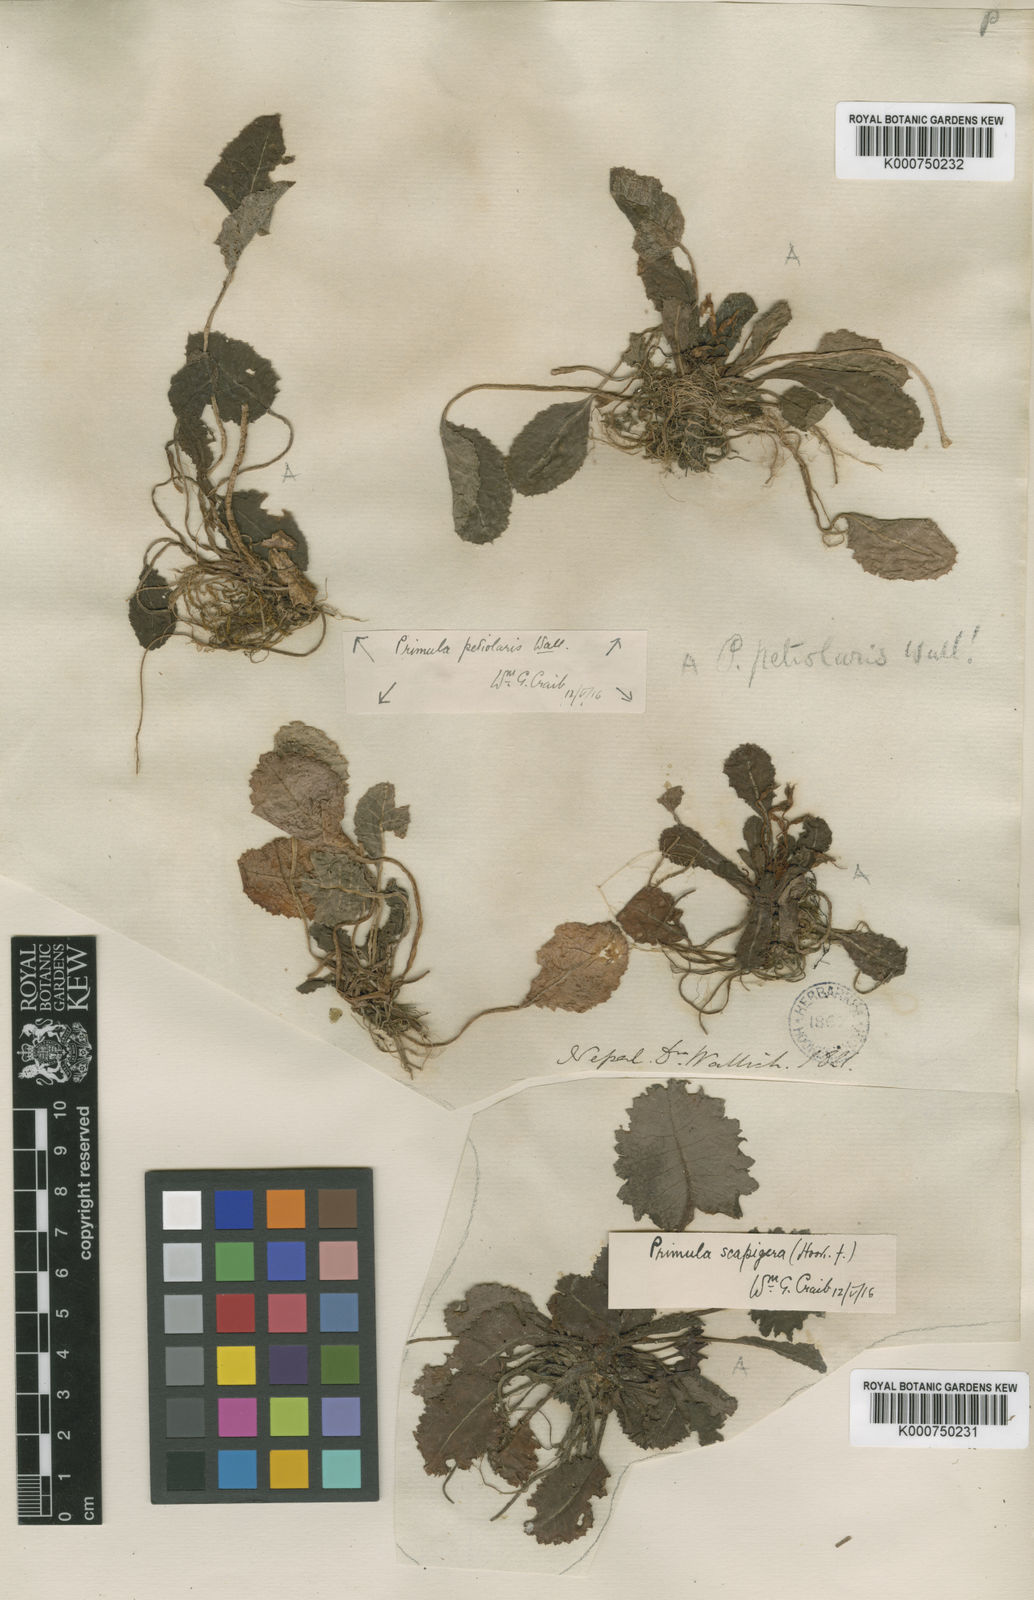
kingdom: Plantae
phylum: Tracheophyta
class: Magnoliopsida
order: Ericales
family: Primulaceae
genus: Primula
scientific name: Primula petiolaris
